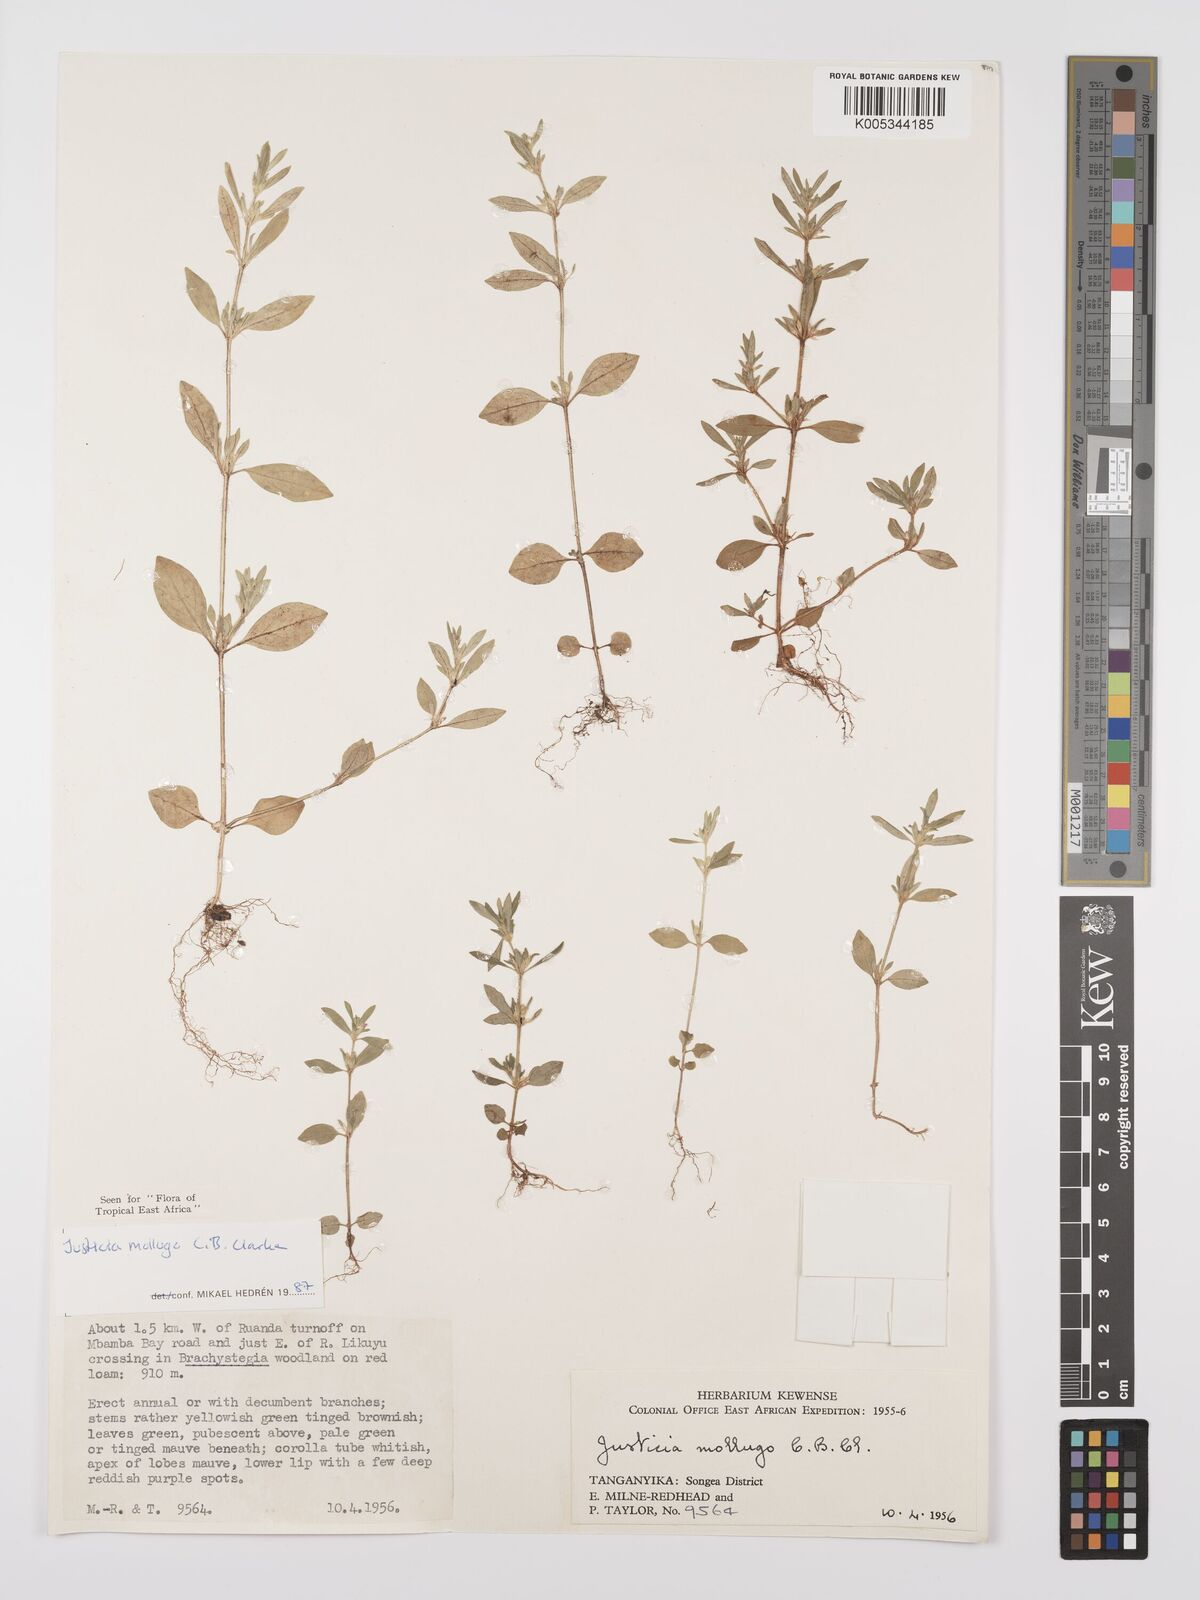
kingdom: Plantae
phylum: Tracheophyta
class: Magnoliopsida
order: Lamiales
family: Acanthaceae
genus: Justicia
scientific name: Justicia mollugo
